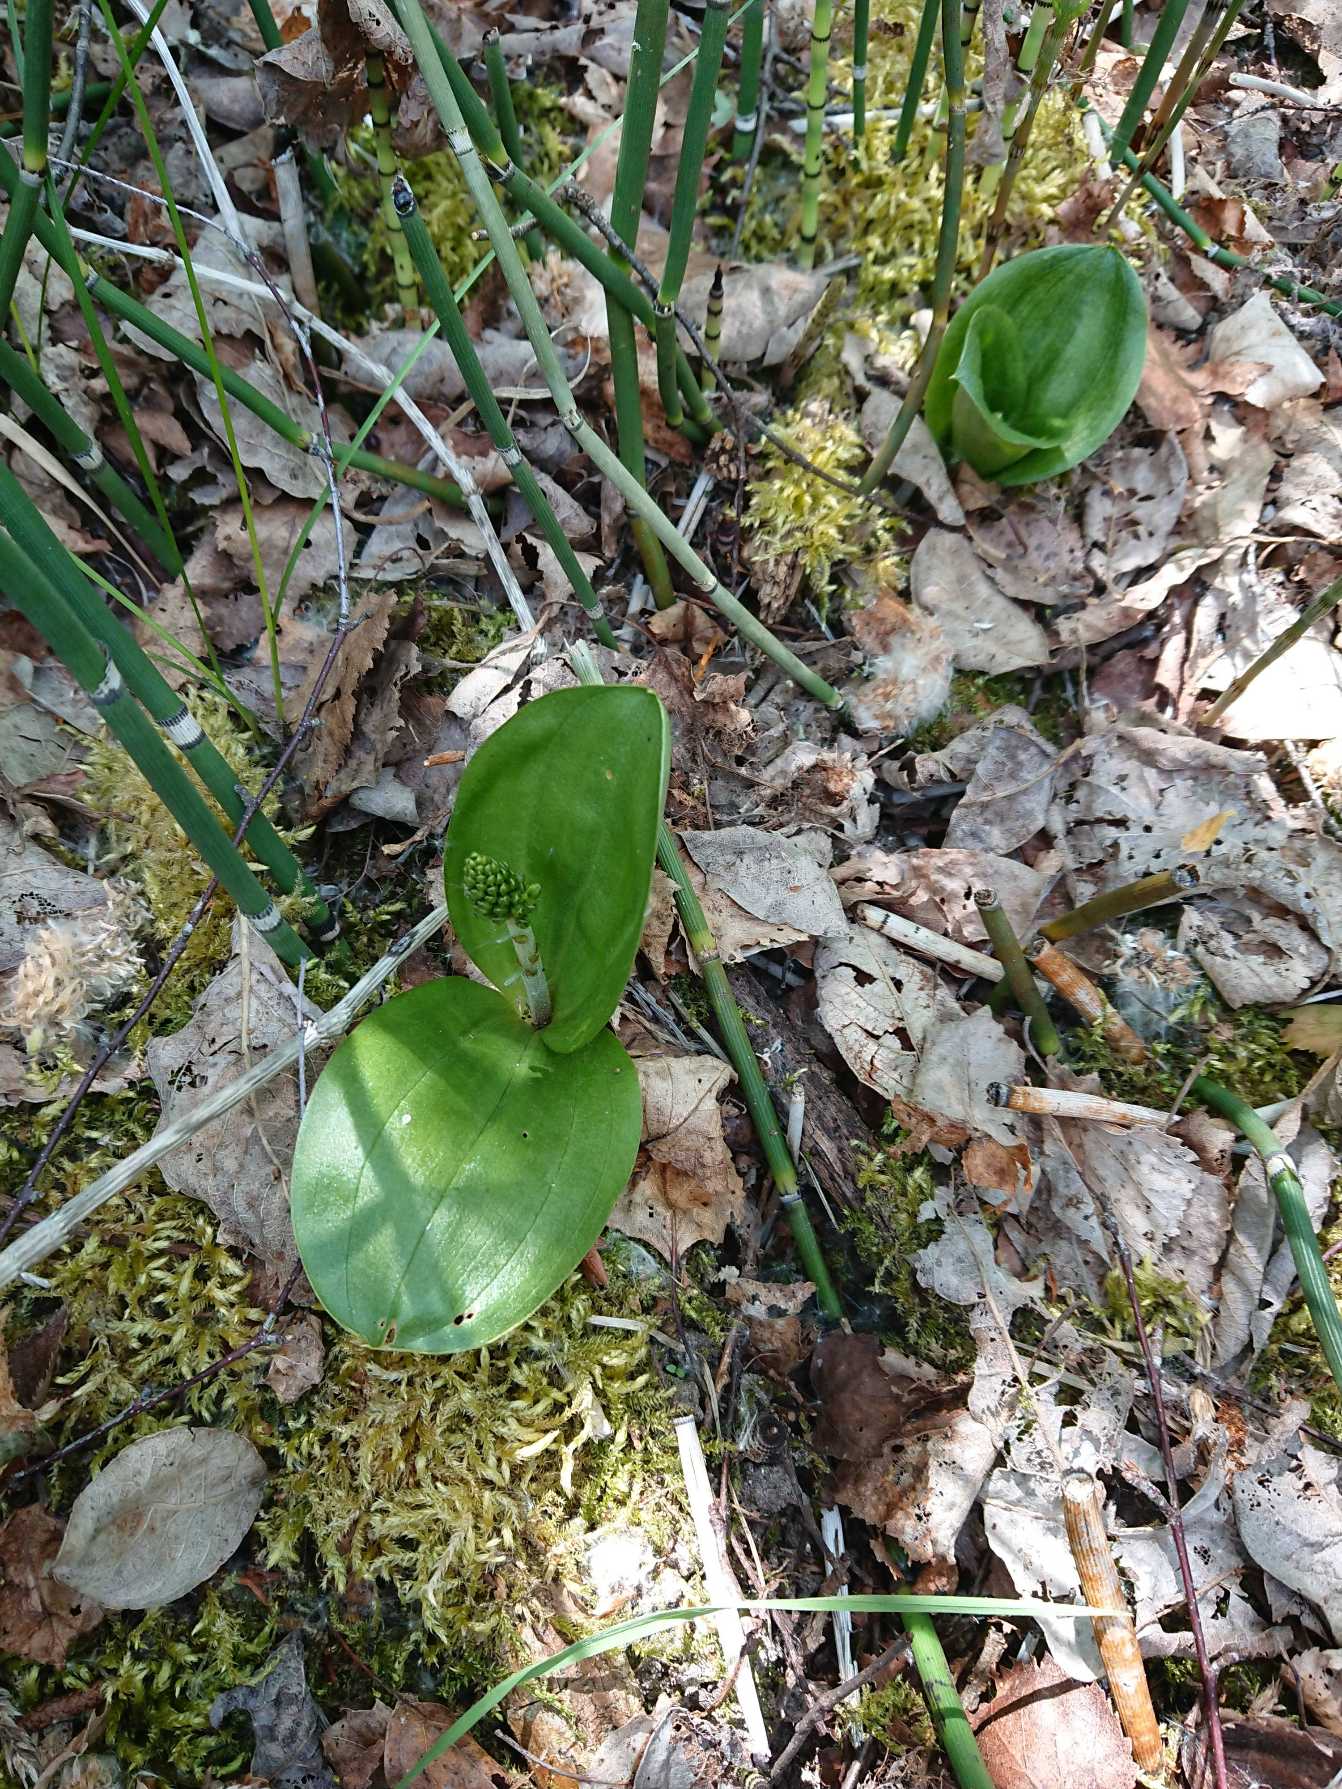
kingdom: Plantae
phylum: Tracheophyta
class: Liliopsida
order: Asparagales
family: Orchidaceae
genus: Neottia
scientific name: Neottia ovata
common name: Ægbladet fliglæbe
